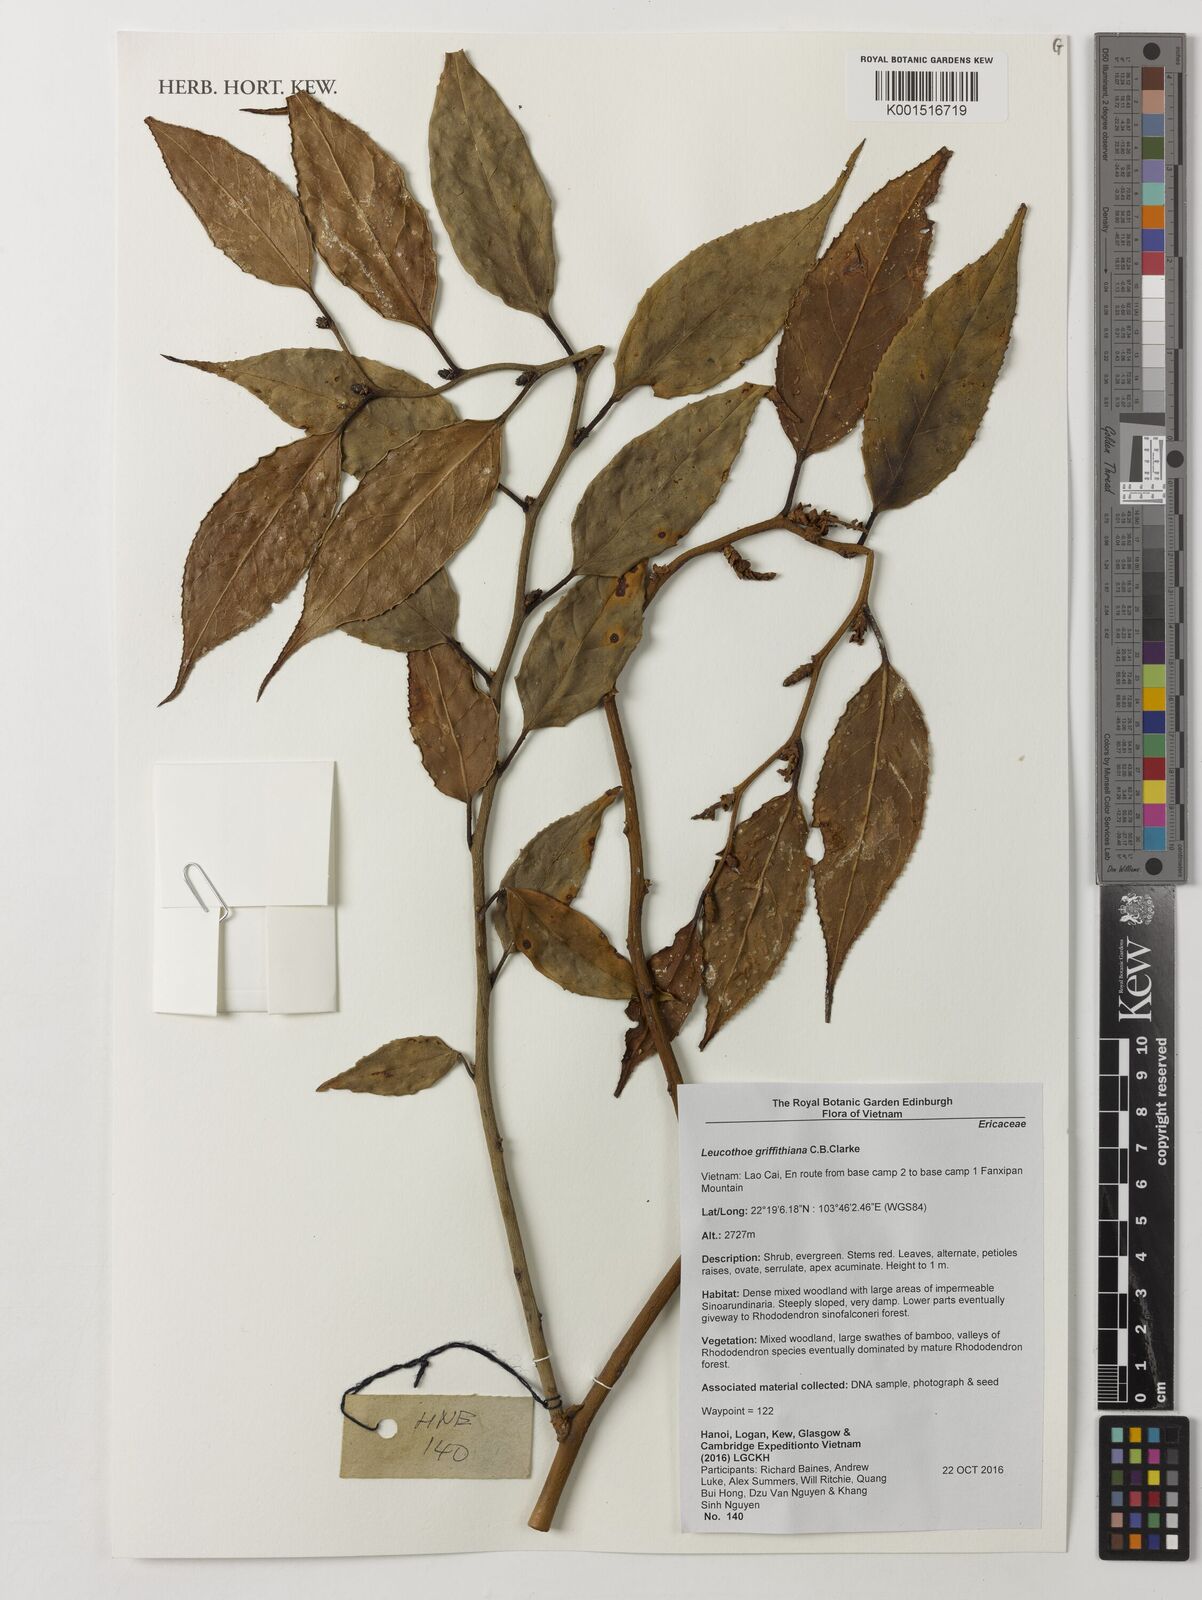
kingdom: Plantae
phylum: Tracheophyta
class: Magnoliopsida
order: Ericales
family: Ericaceae
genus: Leucothoe
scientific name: Leucothoe griffithiana
